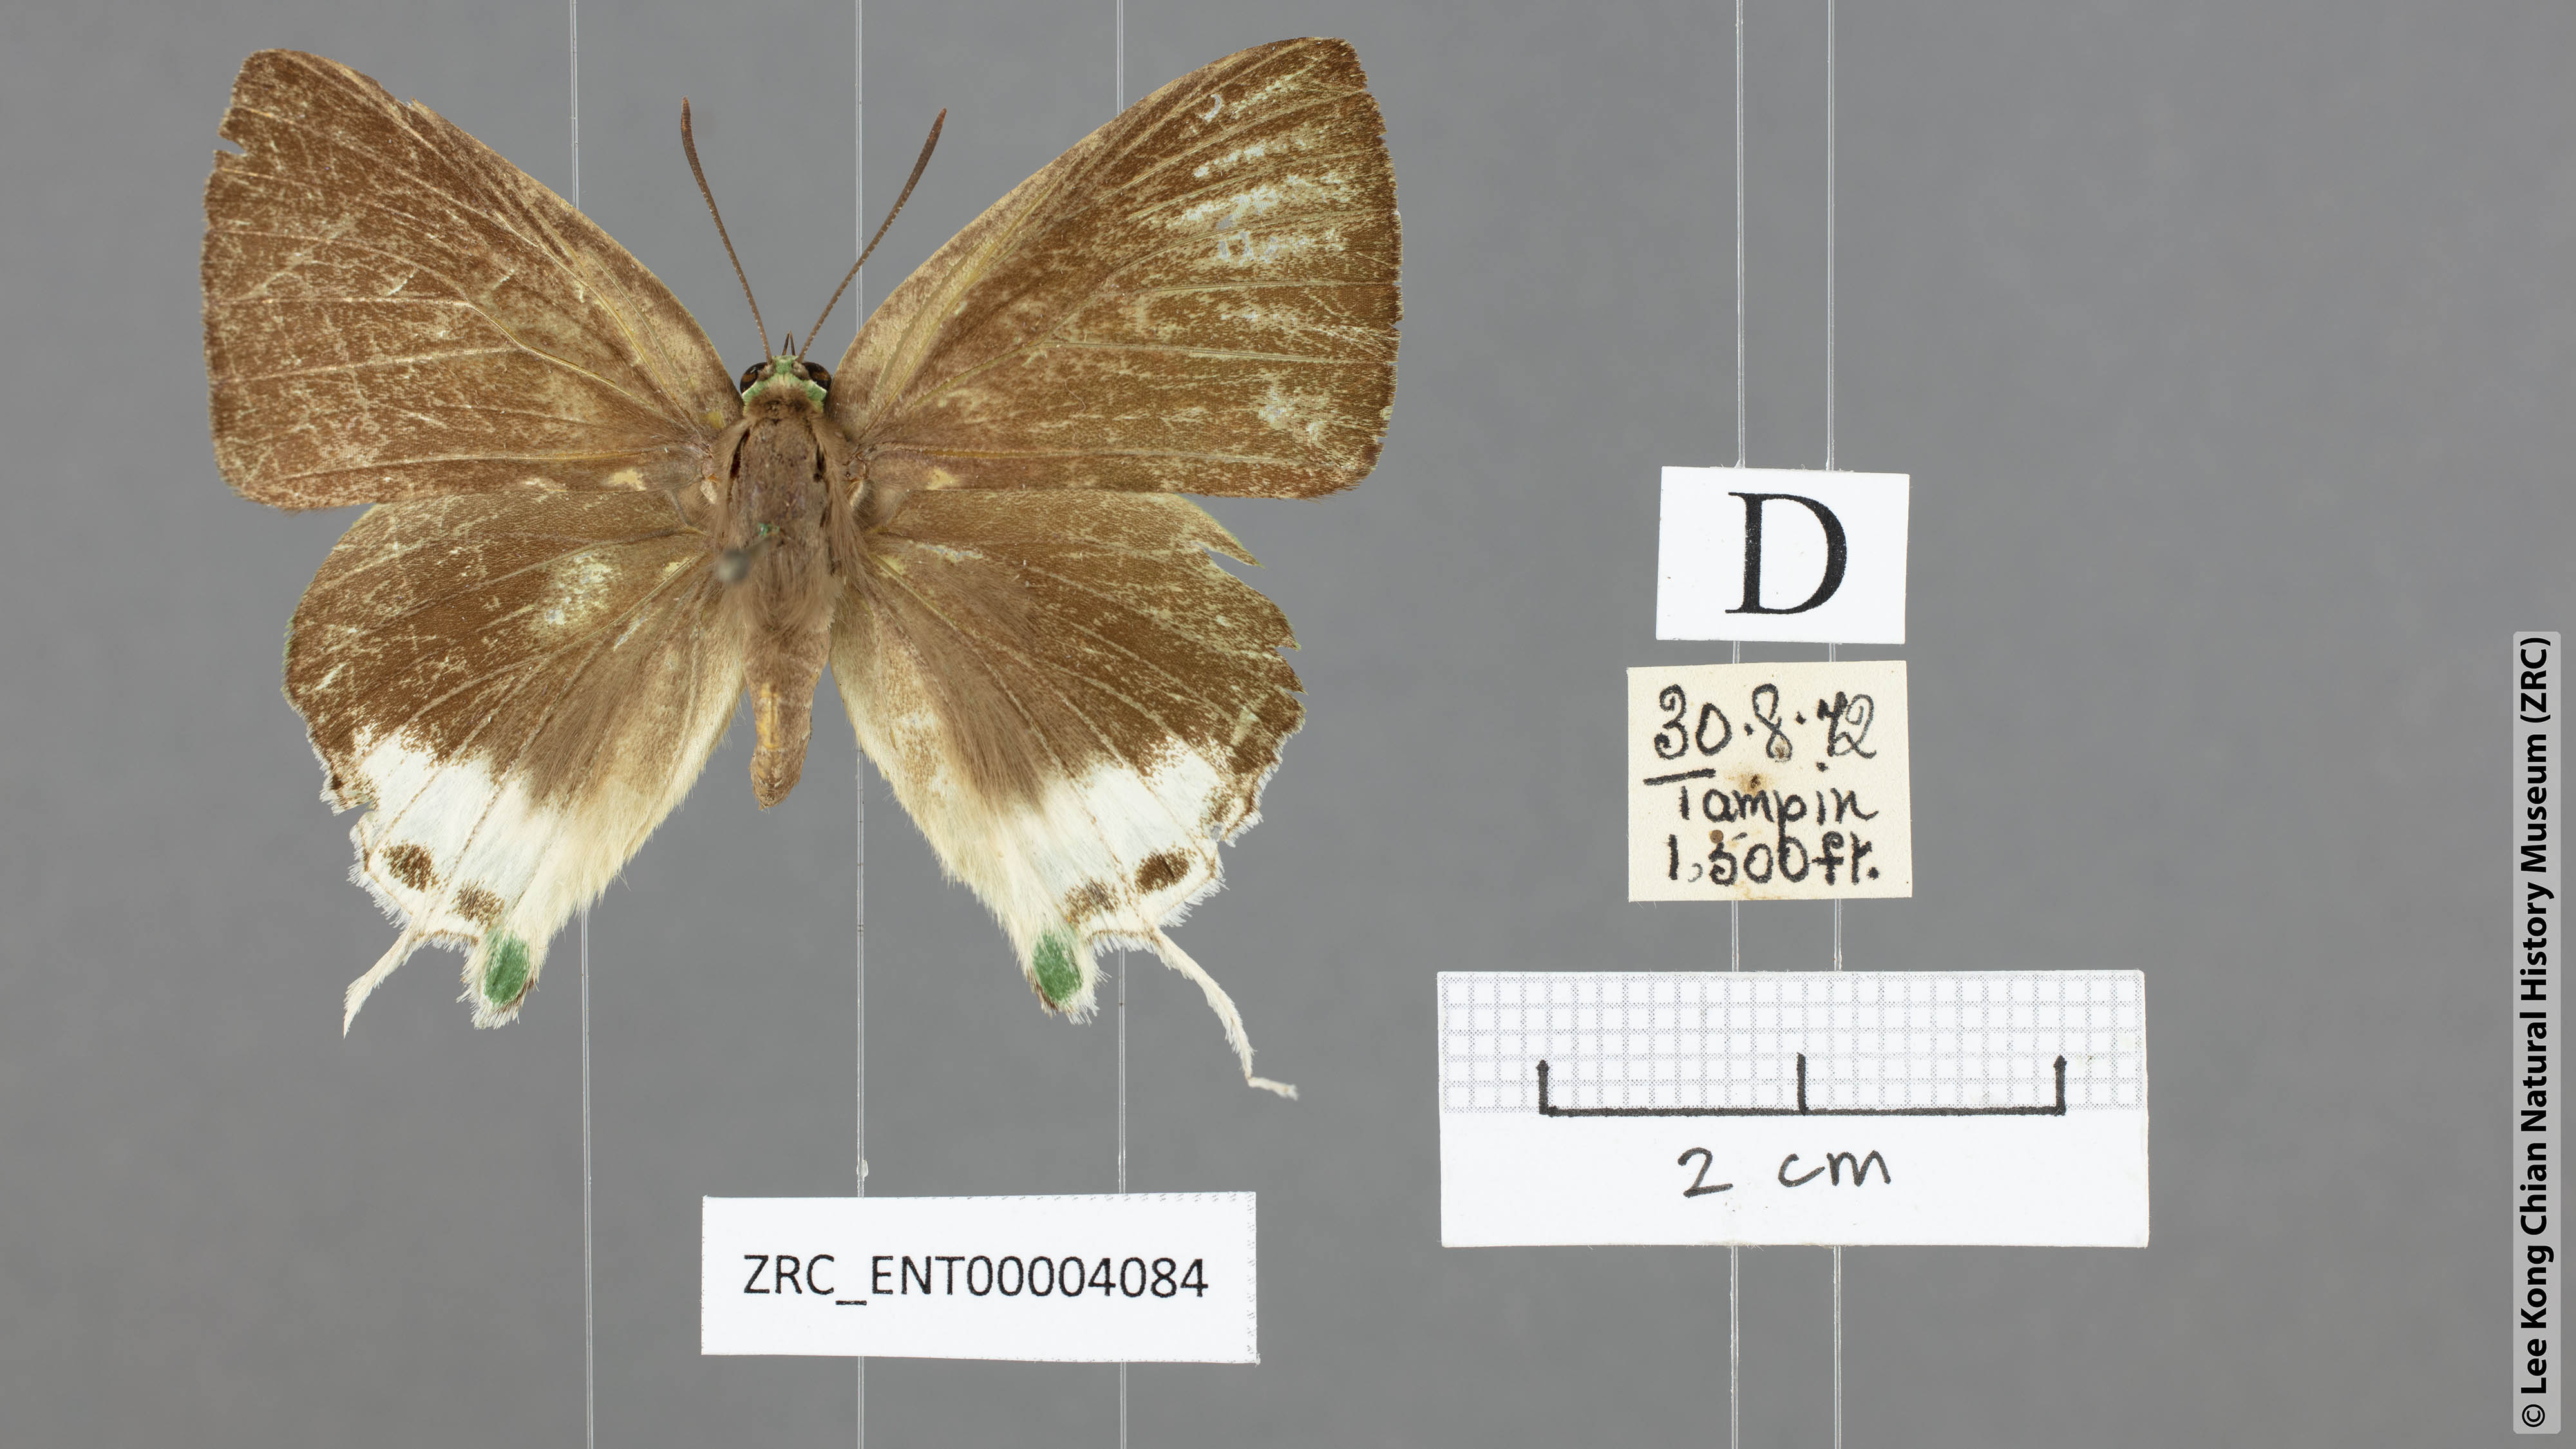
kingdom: Animalia
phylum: Arthropoda
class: Insecta
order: Lepidoptera
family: Lycaenidae
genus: Artipe
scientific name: Artipe eryx
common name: Green flash
